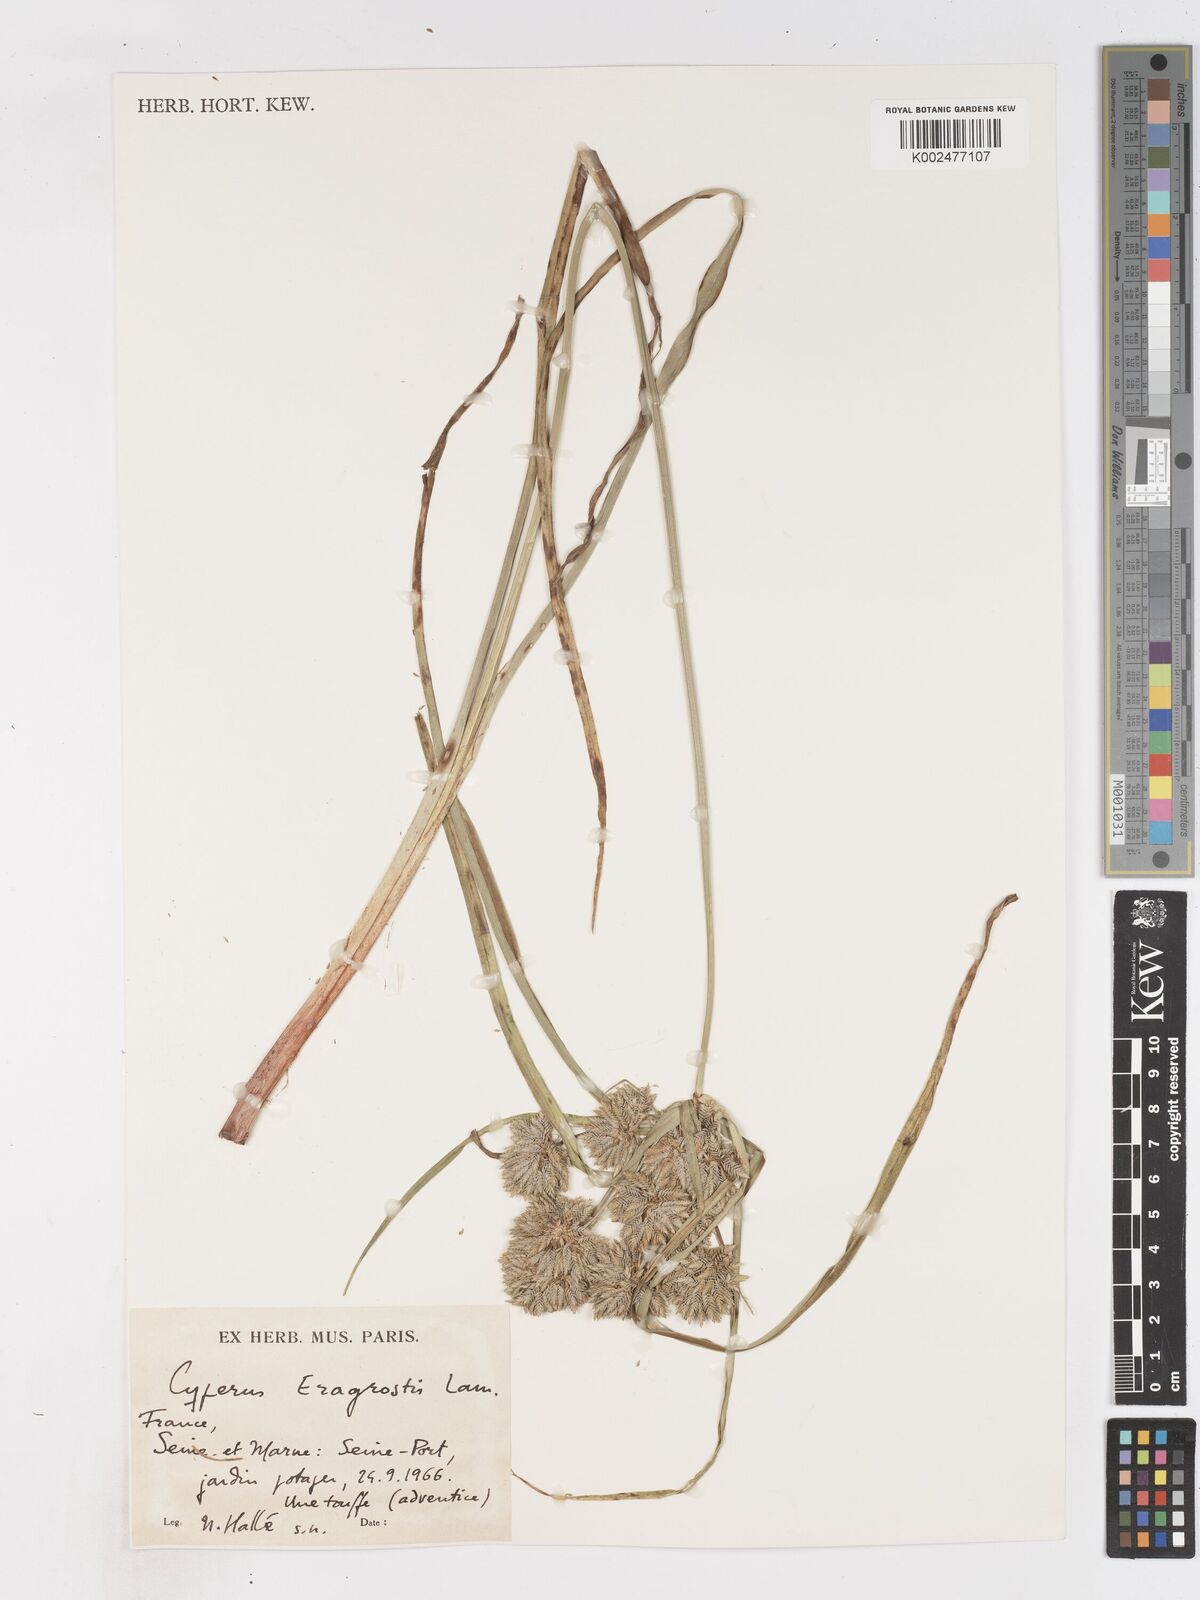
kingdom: Plantae
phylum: Tracheophyta
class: Liliopsida
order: Poales
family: Cyperaceae
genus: Cyperus
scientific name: Cyperus eragrostis
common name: Tall flatsedge
